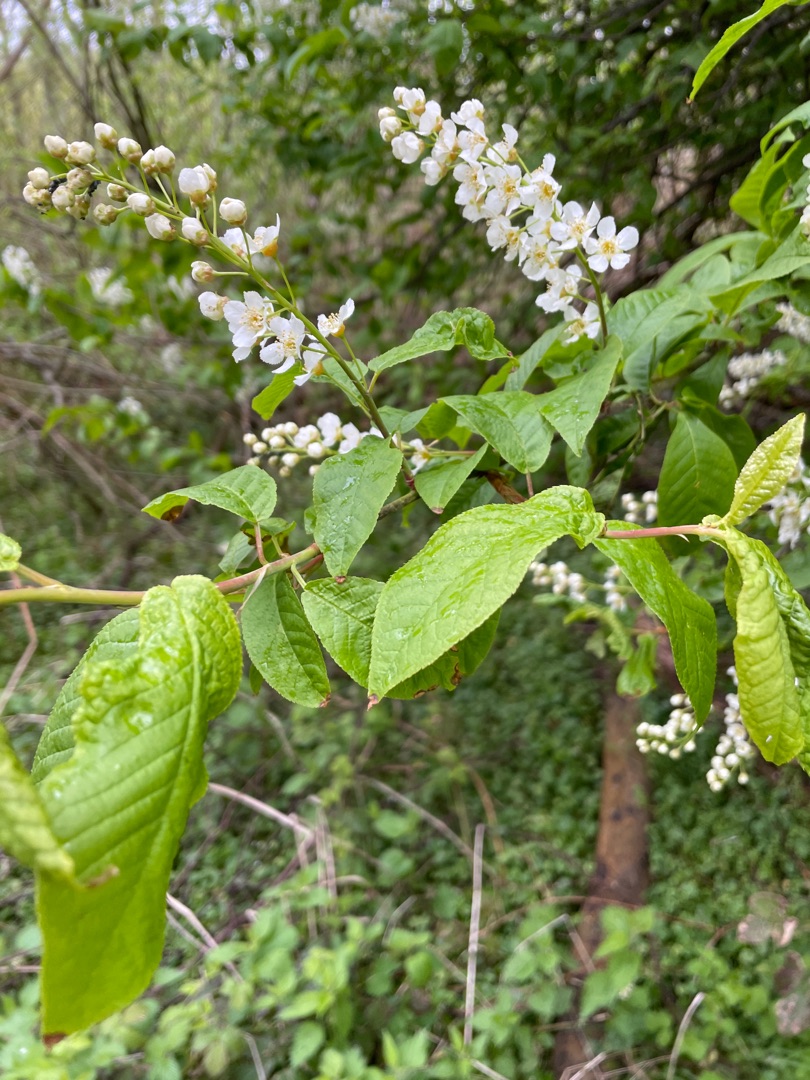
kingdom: Plantae
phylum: Tracheophyta
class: Magnoliopsida
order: Rosales
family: Rosaceae
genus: Prunus
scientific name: Prunus padus
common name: Almindelig hæg
